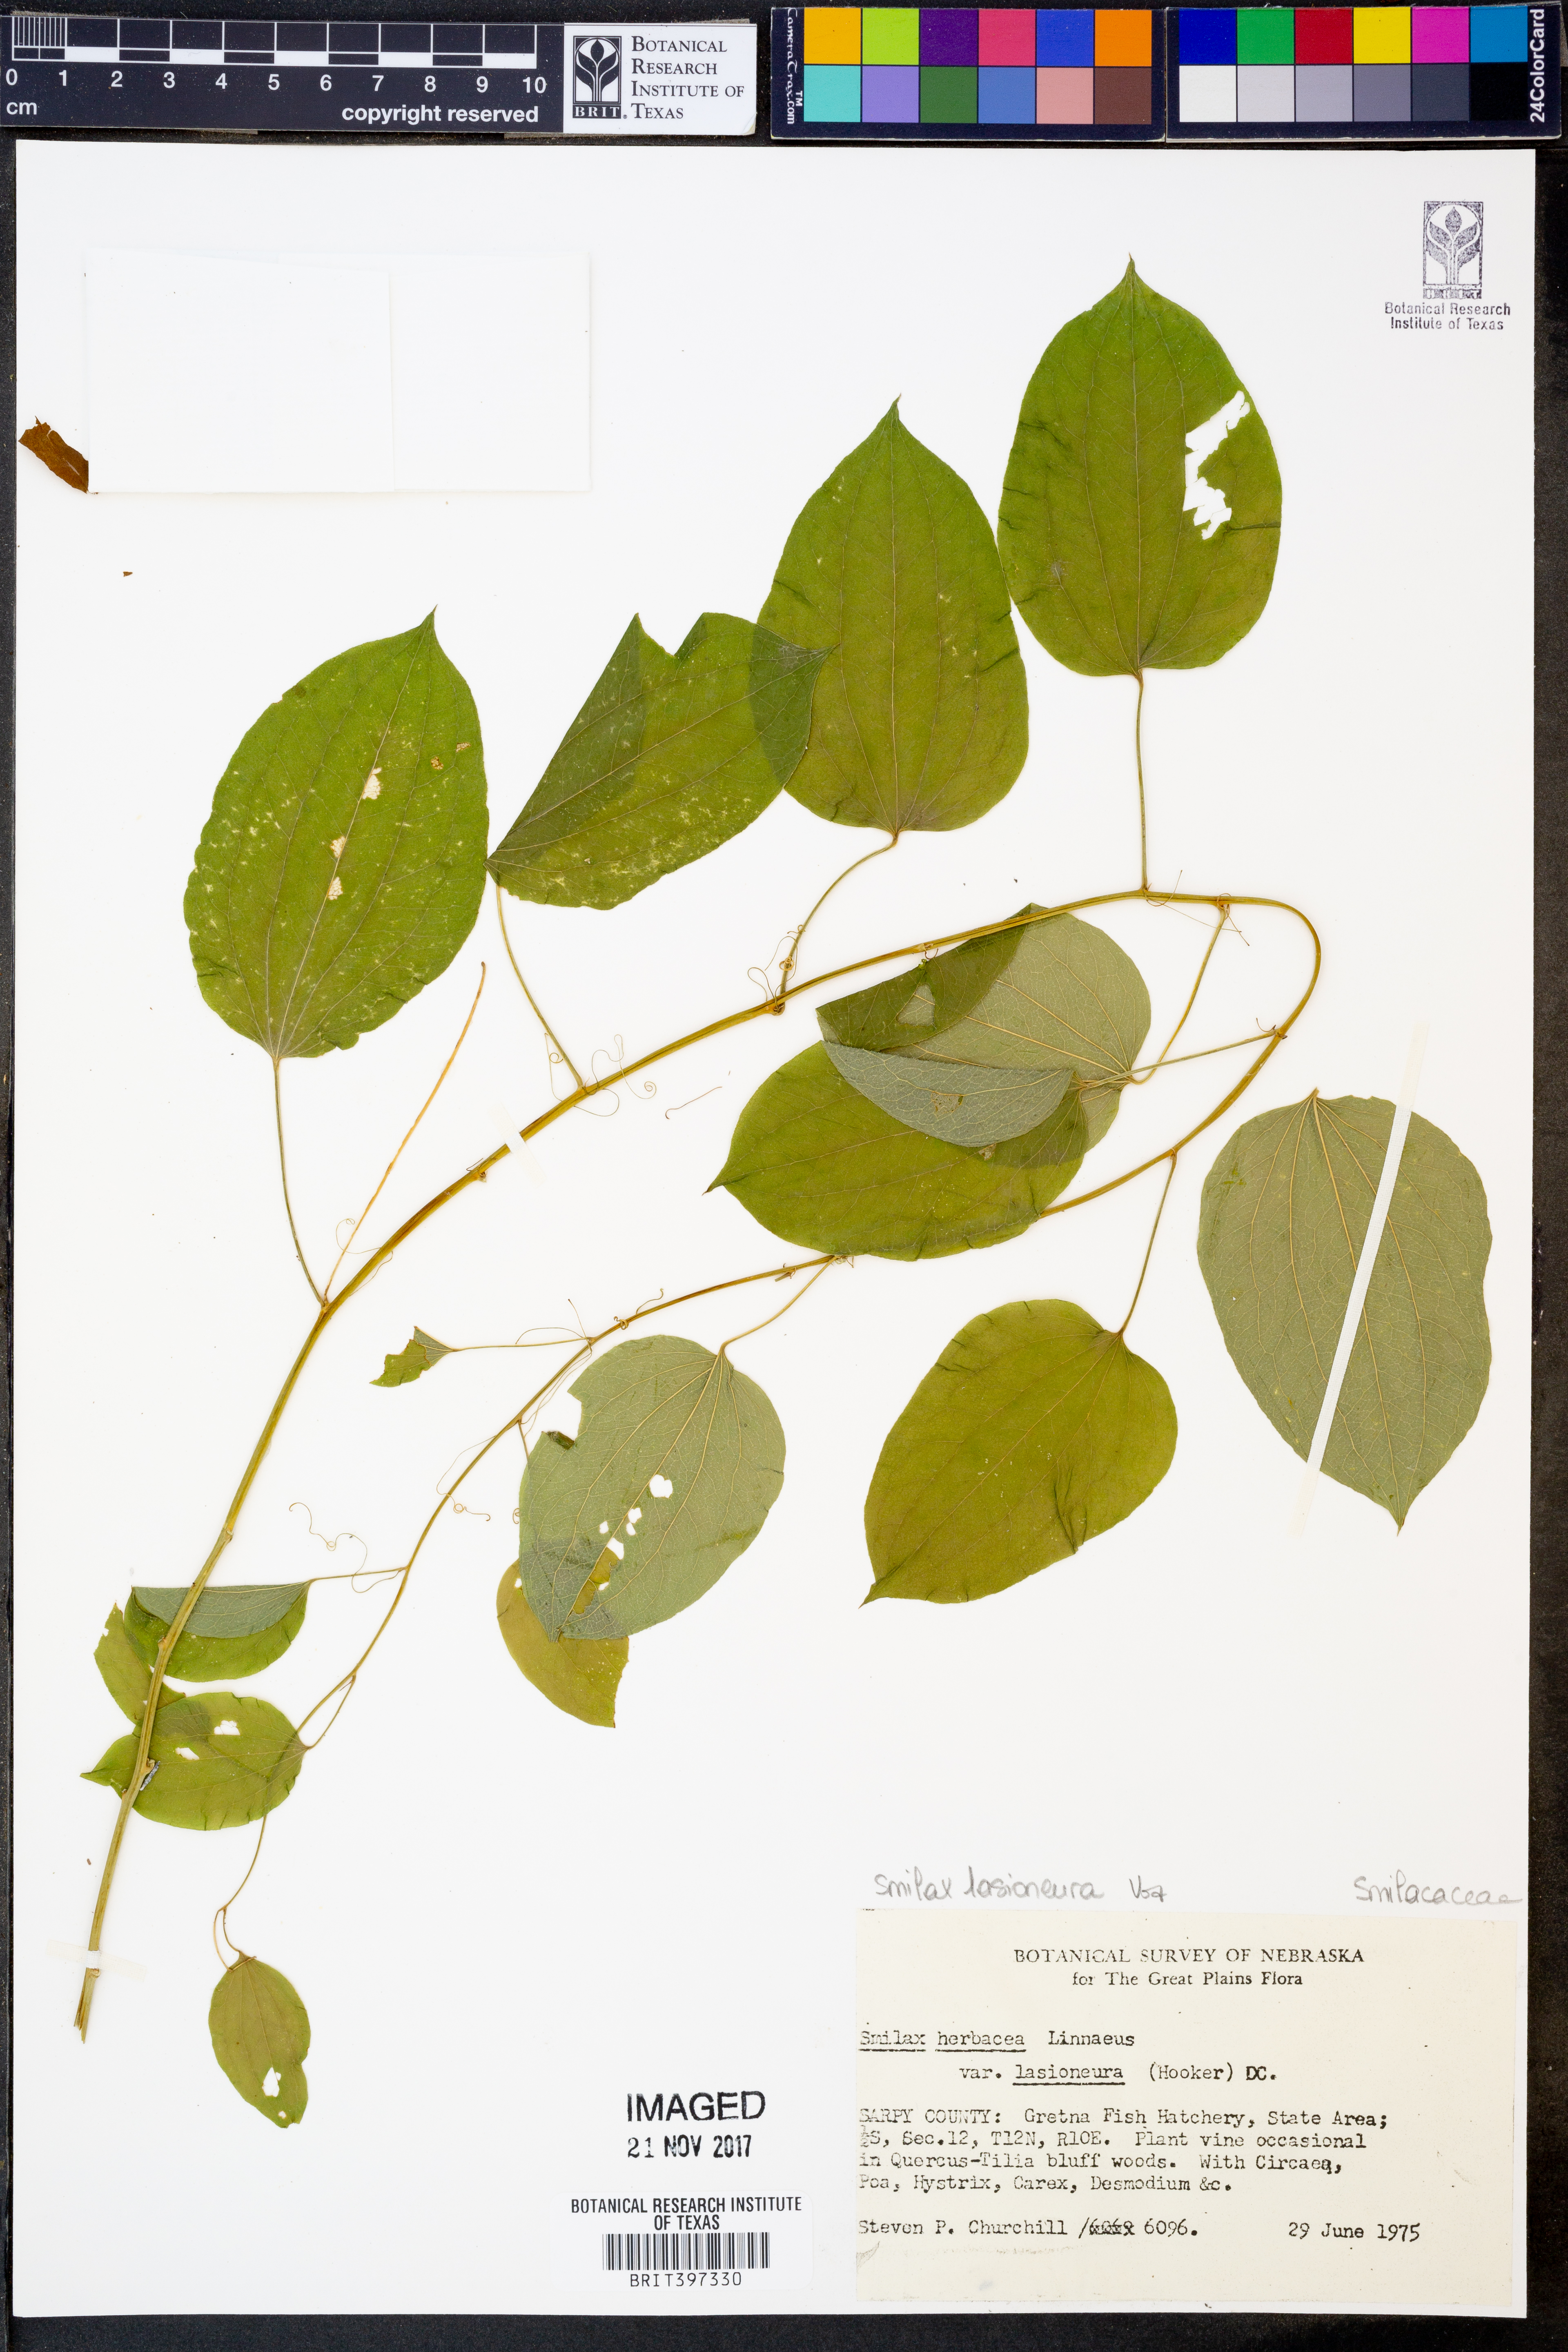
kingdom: Plantae
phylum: Tracheophyta
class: Liliopsida
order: Liliales
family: Smilacaceae
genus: Smilax
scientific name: Smilax lasioneura
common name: Blue ridge carrionflower
